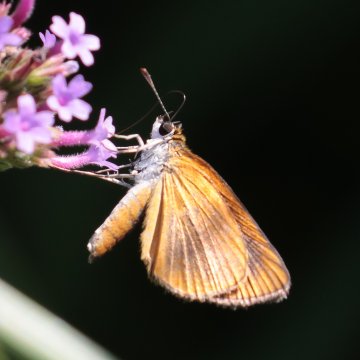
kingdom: Animalia
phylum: Arthropoda
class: Insecta
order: Lepidoptera
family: Hesperiidae
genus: Ancyloxypha
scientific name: Ancyloxypha numitor
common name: Least Skipper
